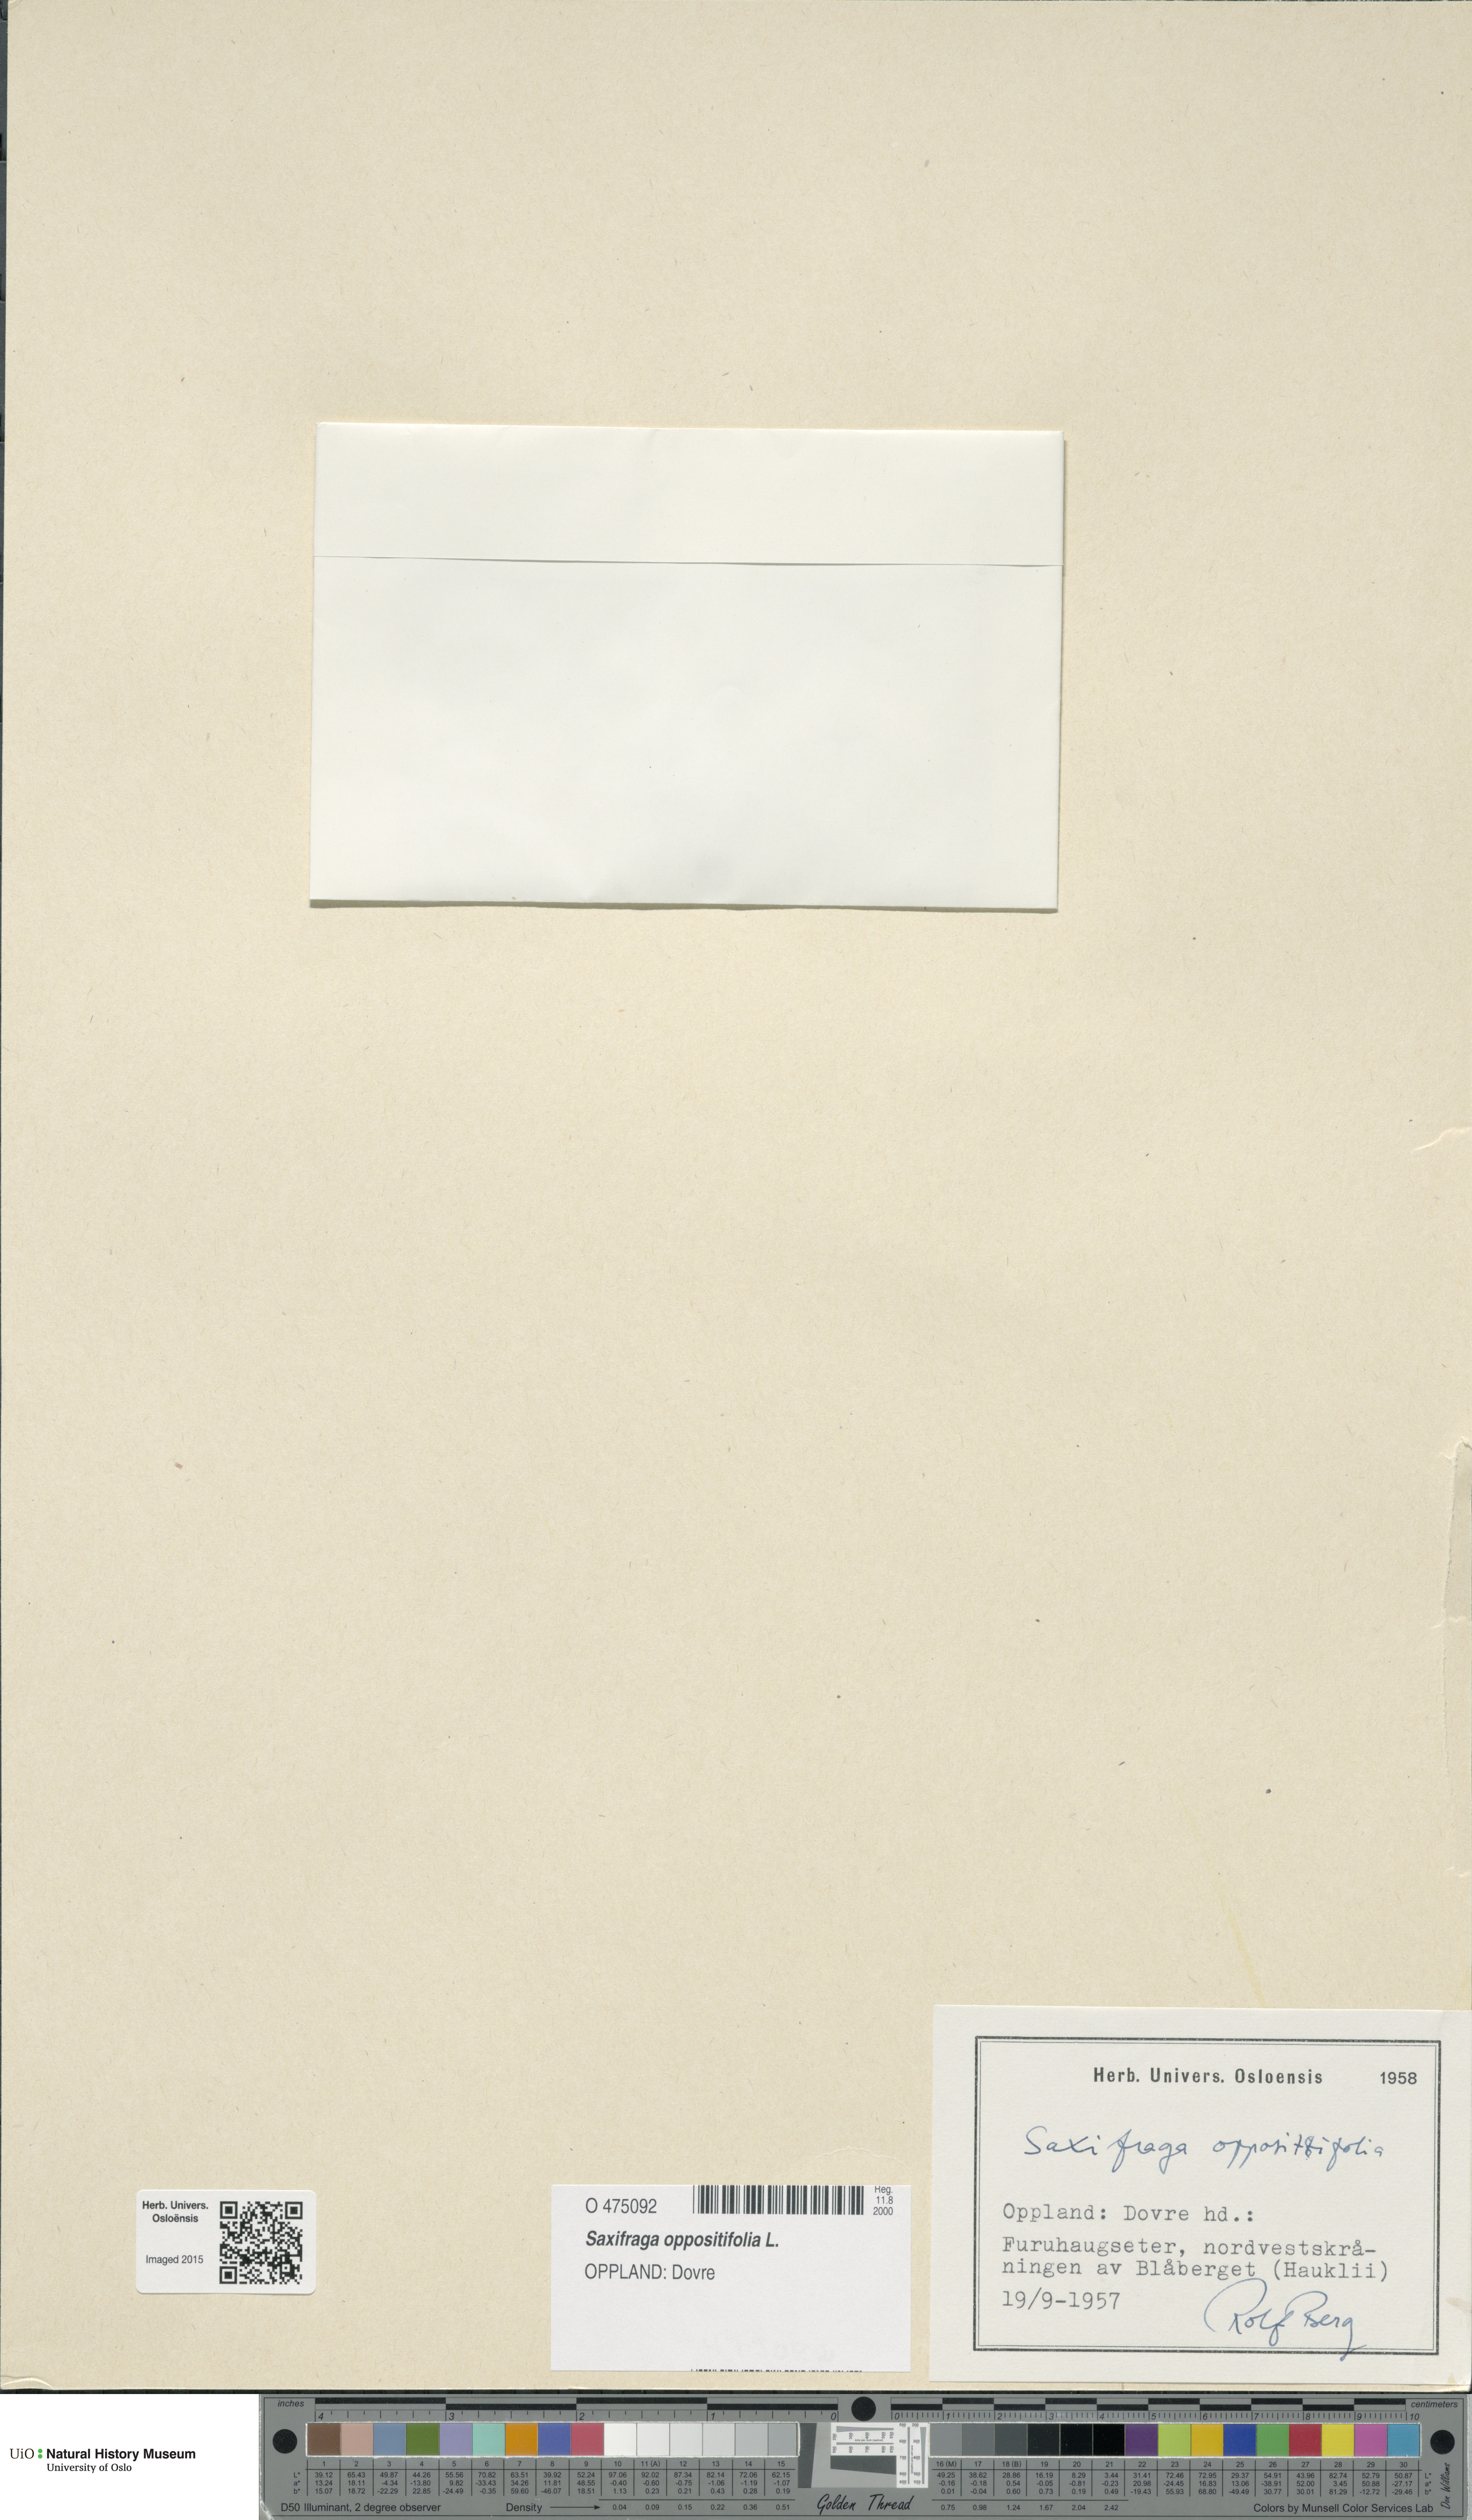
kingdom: Plantae
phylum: Tracheophyta
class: Magnoliopsida
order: Saxifragales
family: Saxifragaceae
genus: Saxifraga
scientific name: Saxifraga oppositifolia
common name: Purple saxifrage
